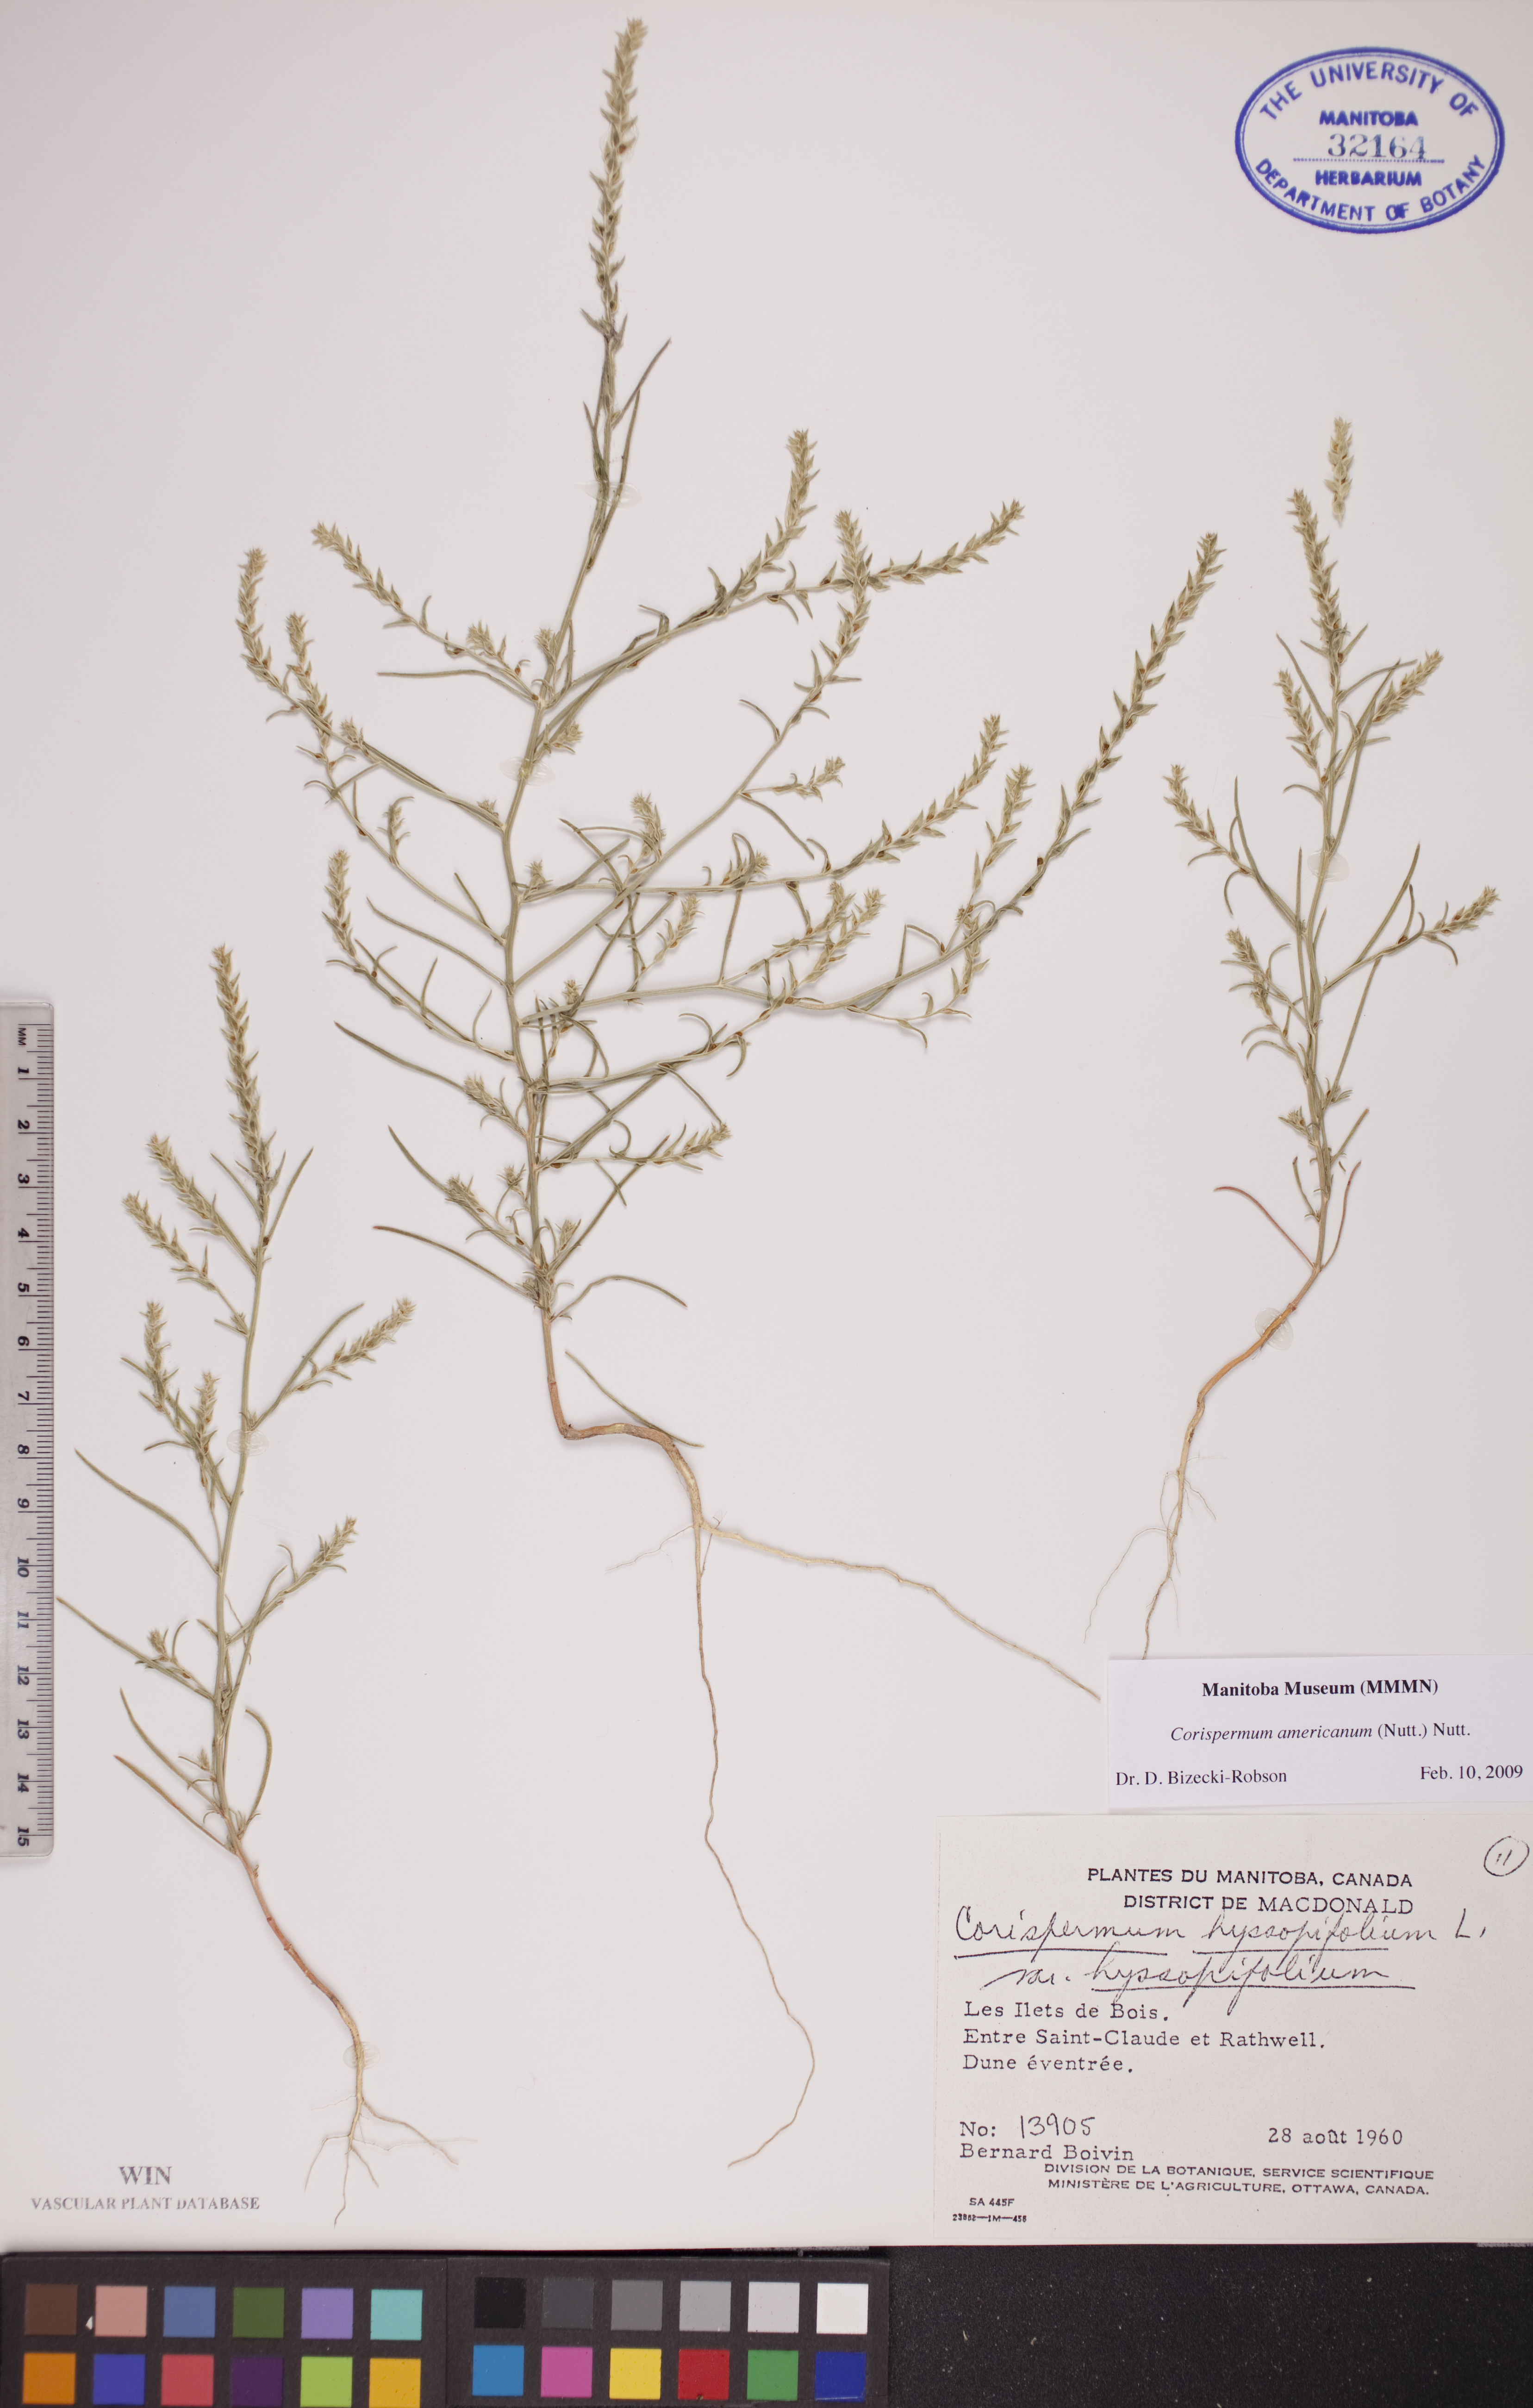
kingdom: Plantae
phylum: Tracheophyta
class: Magnoliopsida
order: Caryophyllales
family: Amaranthaceae
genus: Corispermum
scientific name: Corispermum americanum
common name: American bugseed
